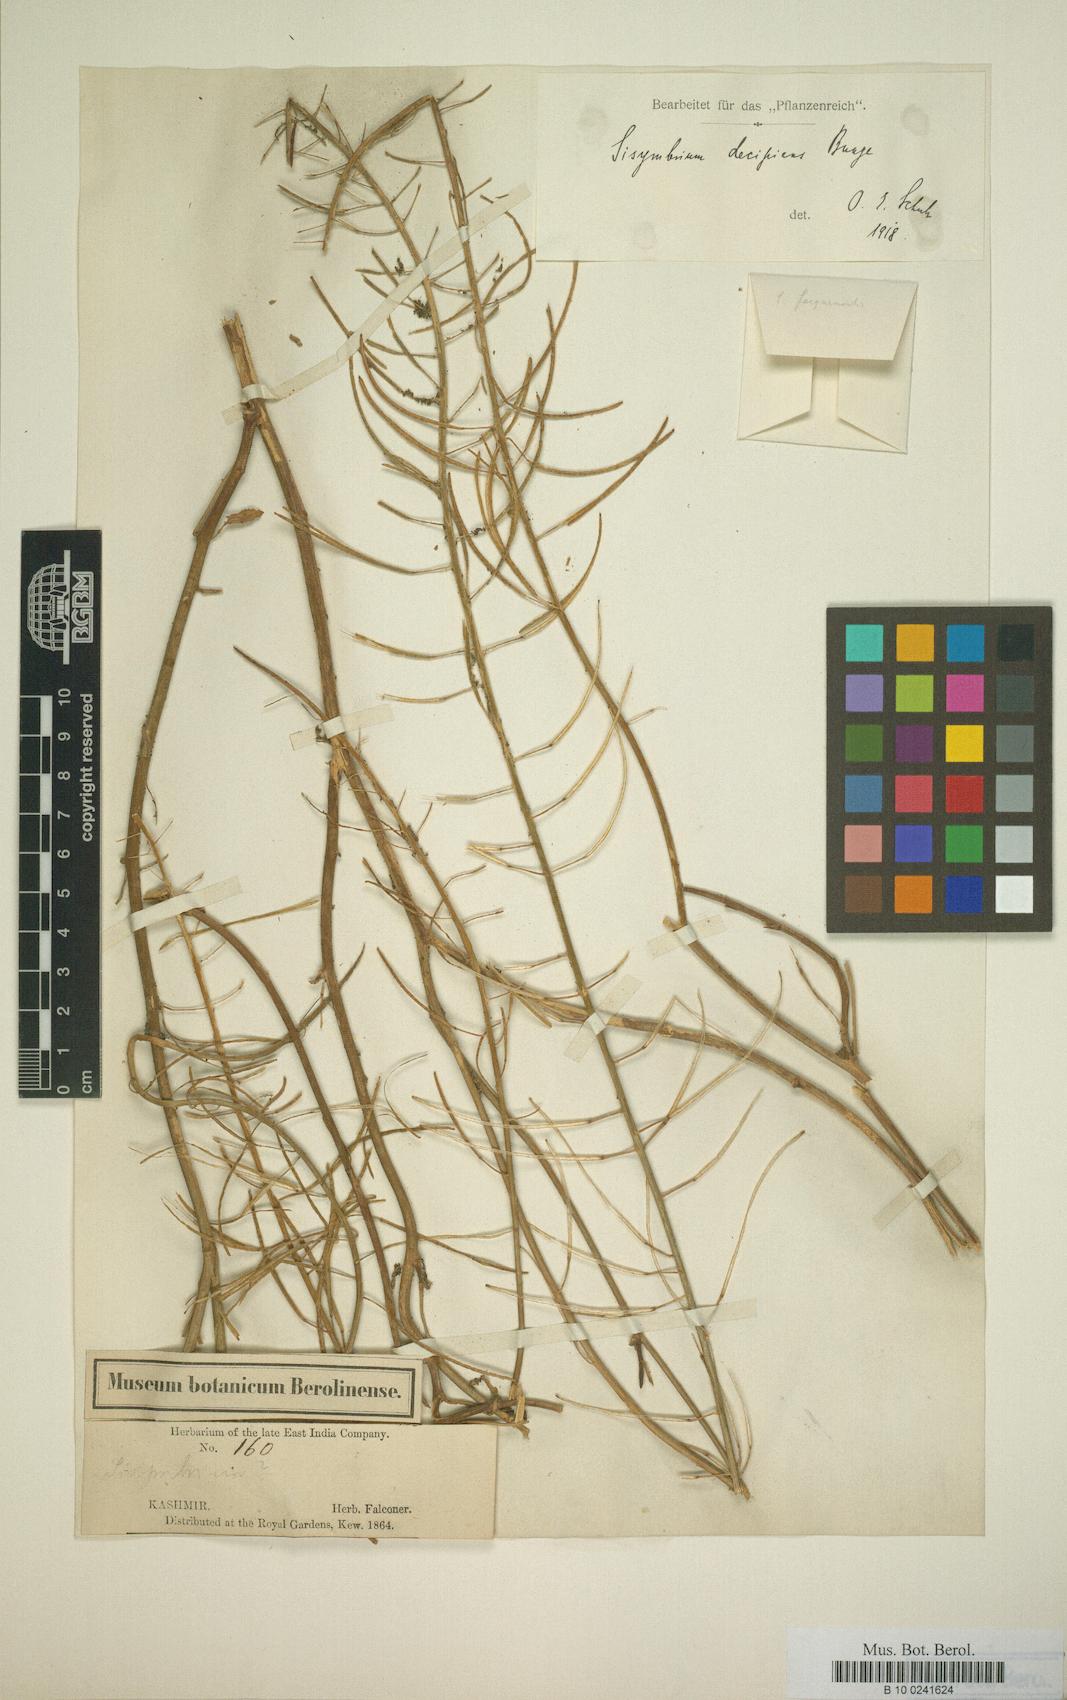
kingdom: Plantae
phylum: Tracheophyta
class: Magnoliopsida
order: Brassicales
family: Brassicaceae
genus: Sisymbrium
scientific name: Sisymbrium loeselii
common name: False london-rocket
